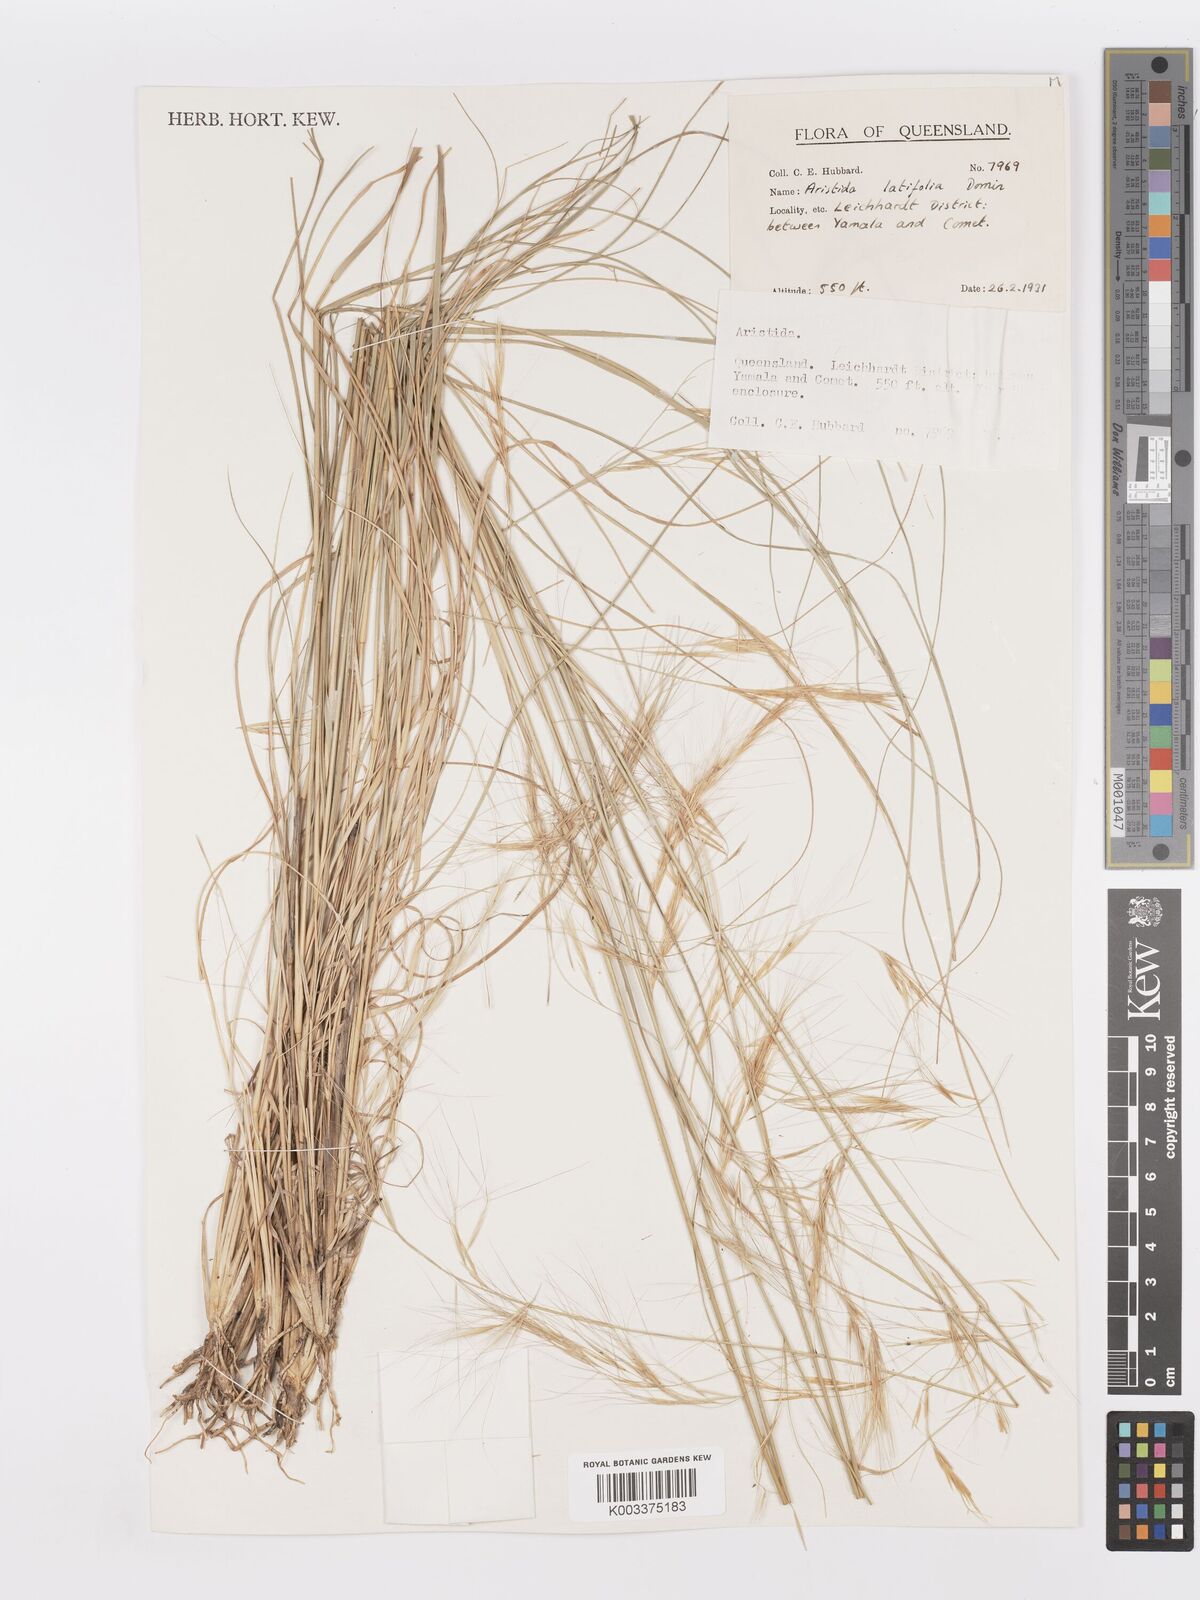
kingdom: Plantae
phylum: Tracheophyta
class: Liliopsida
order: Poales
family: Poaceae
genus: Aristida
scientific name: Aristida latifolia
